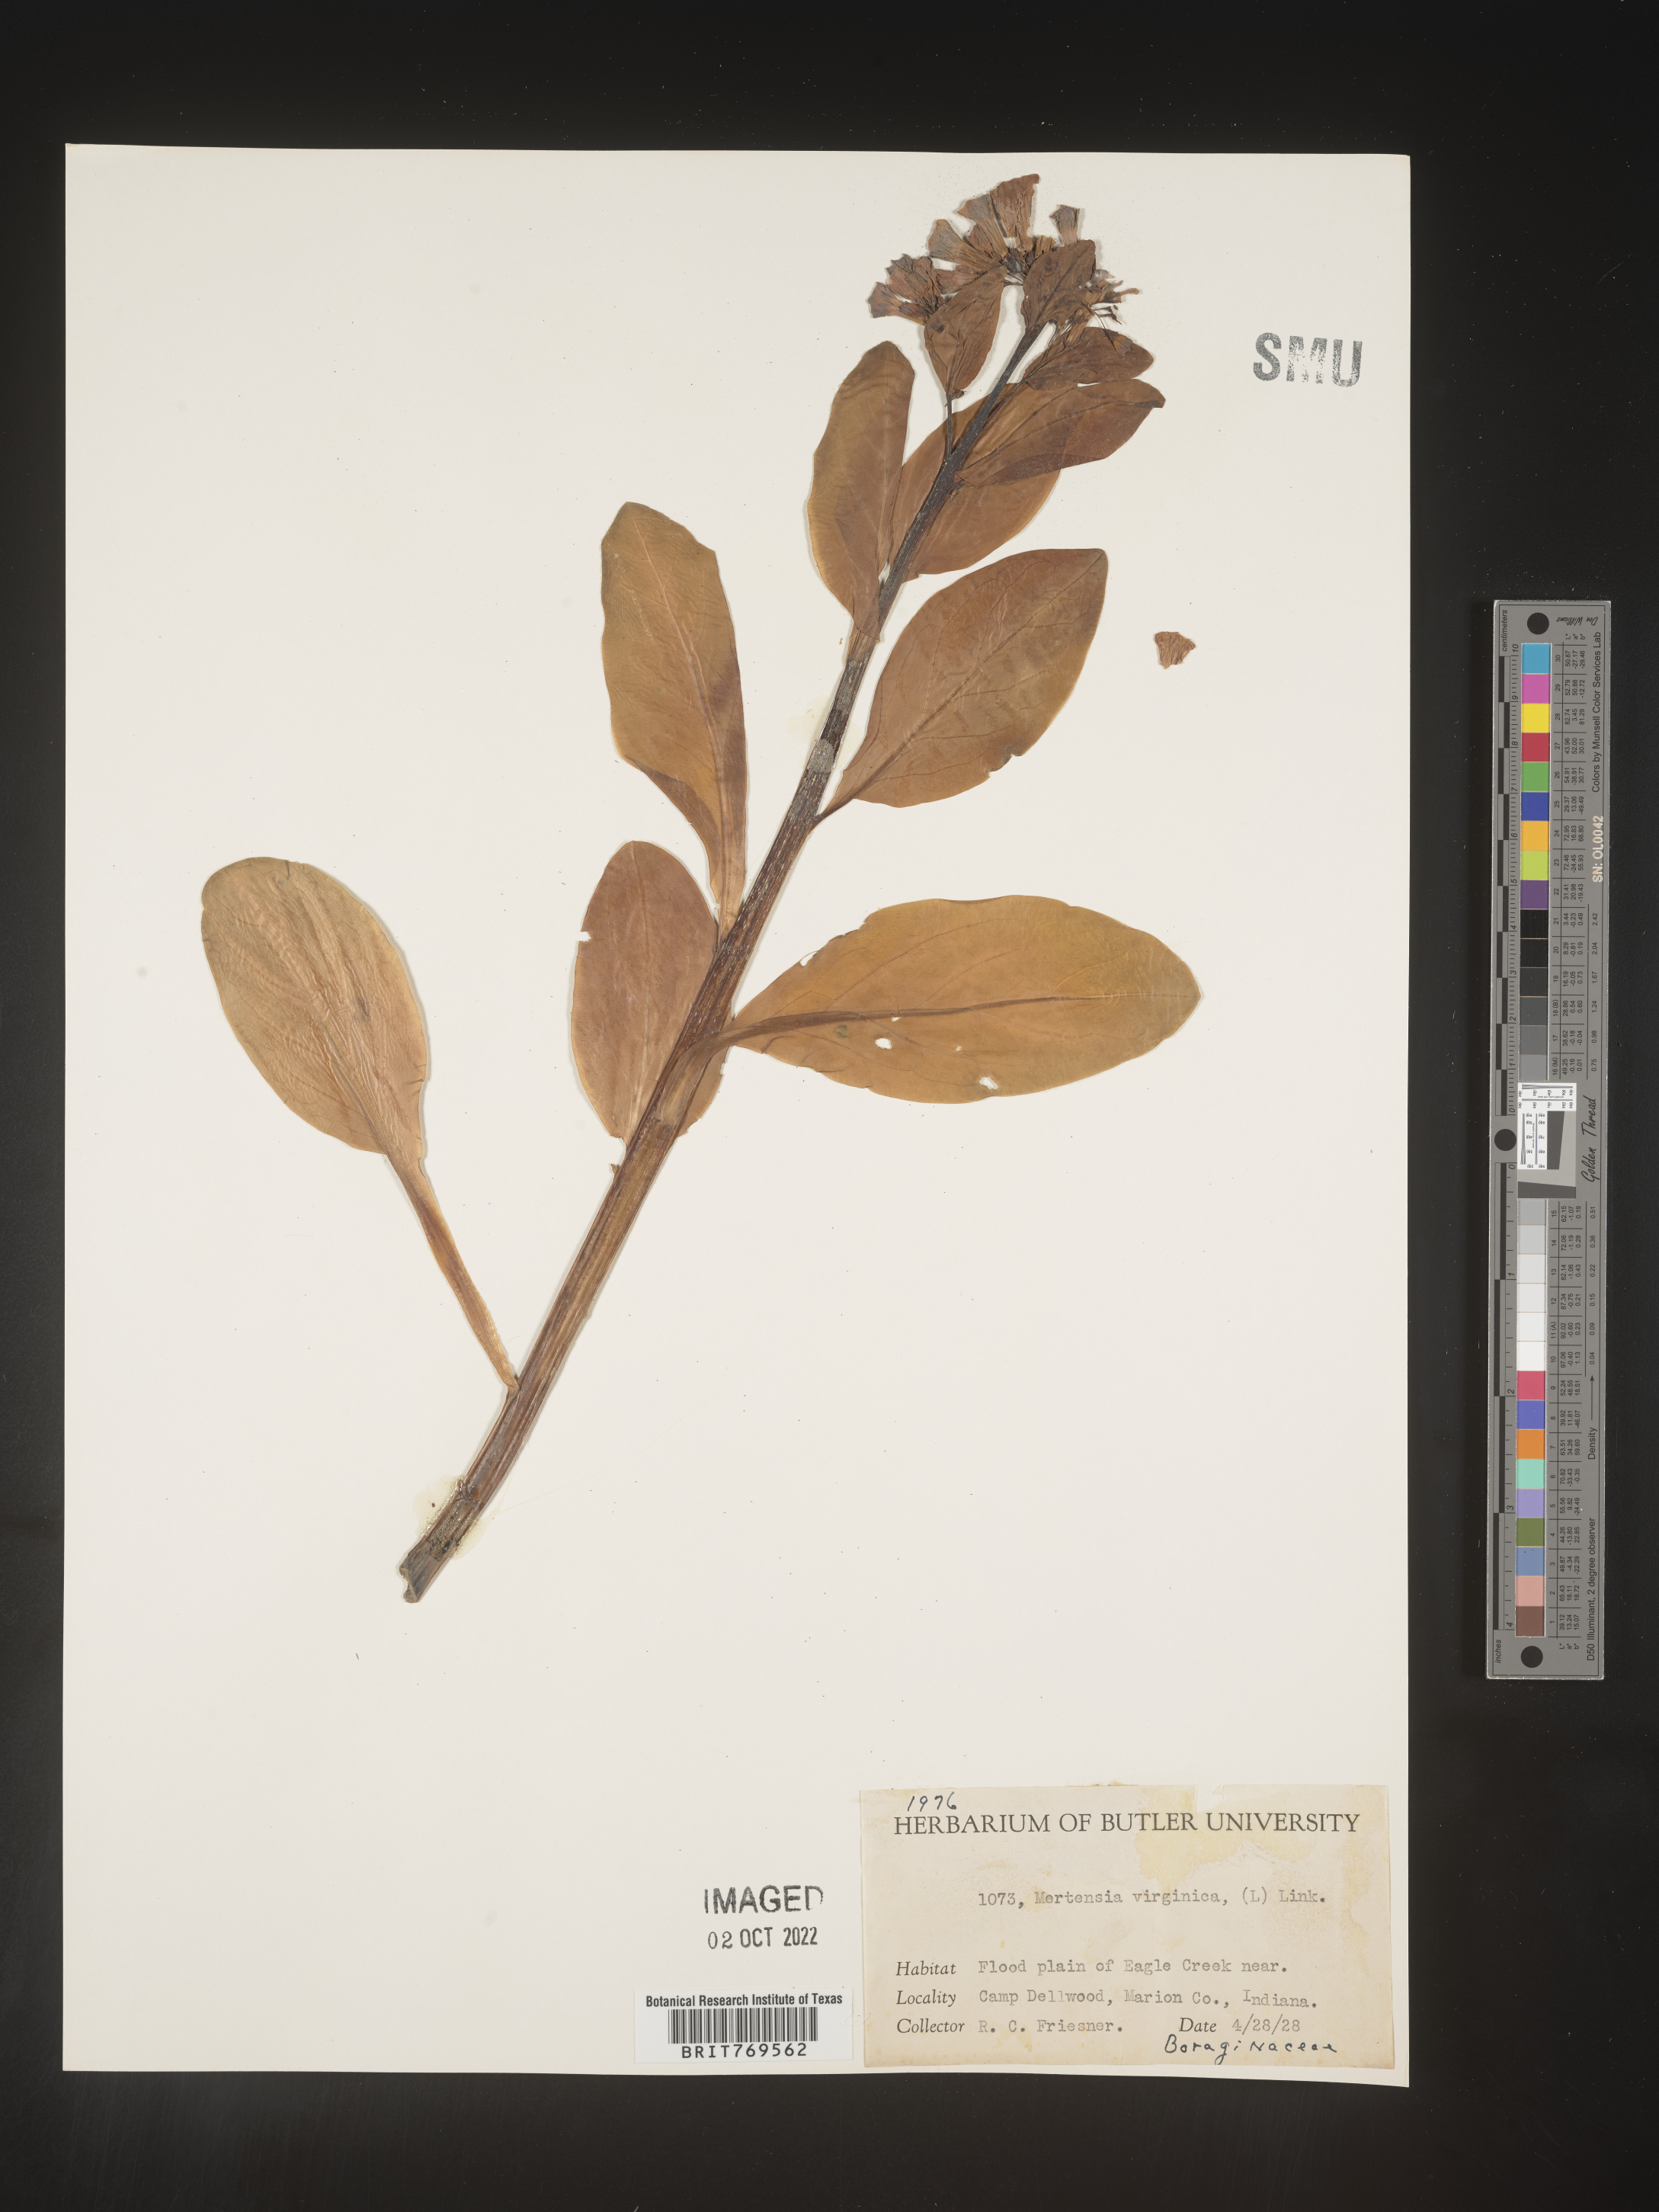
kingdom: Plantae
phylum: Tracheophyta
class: Magnoliopsida
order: Boraginales
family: Boraginaceae
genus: Mertensia
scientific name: Mertensia virginica
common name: Virginia bluebells
